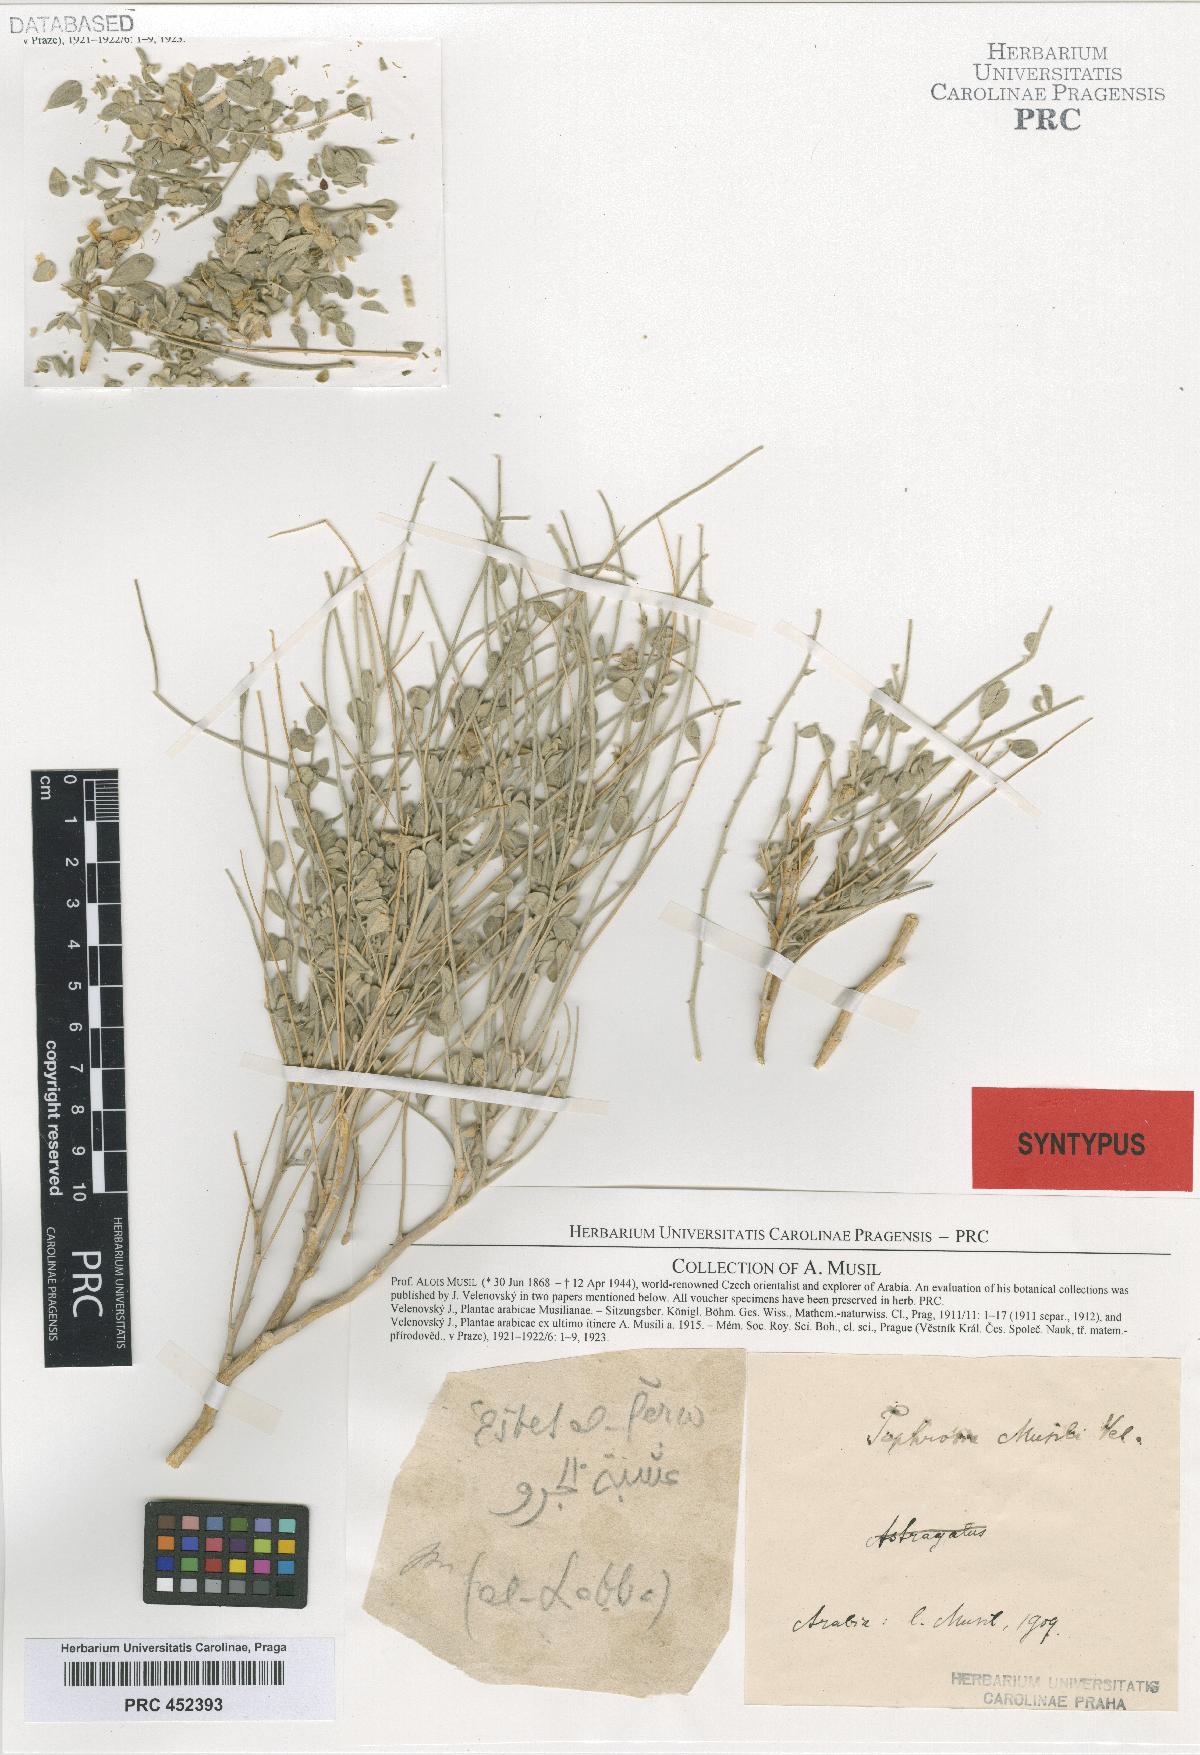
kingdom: Plantae
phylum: Tracheophyta
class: Magnoliopsida
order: Fabales
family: Fabaceae
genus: Tephrosia
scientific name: Tephrosia musilii
